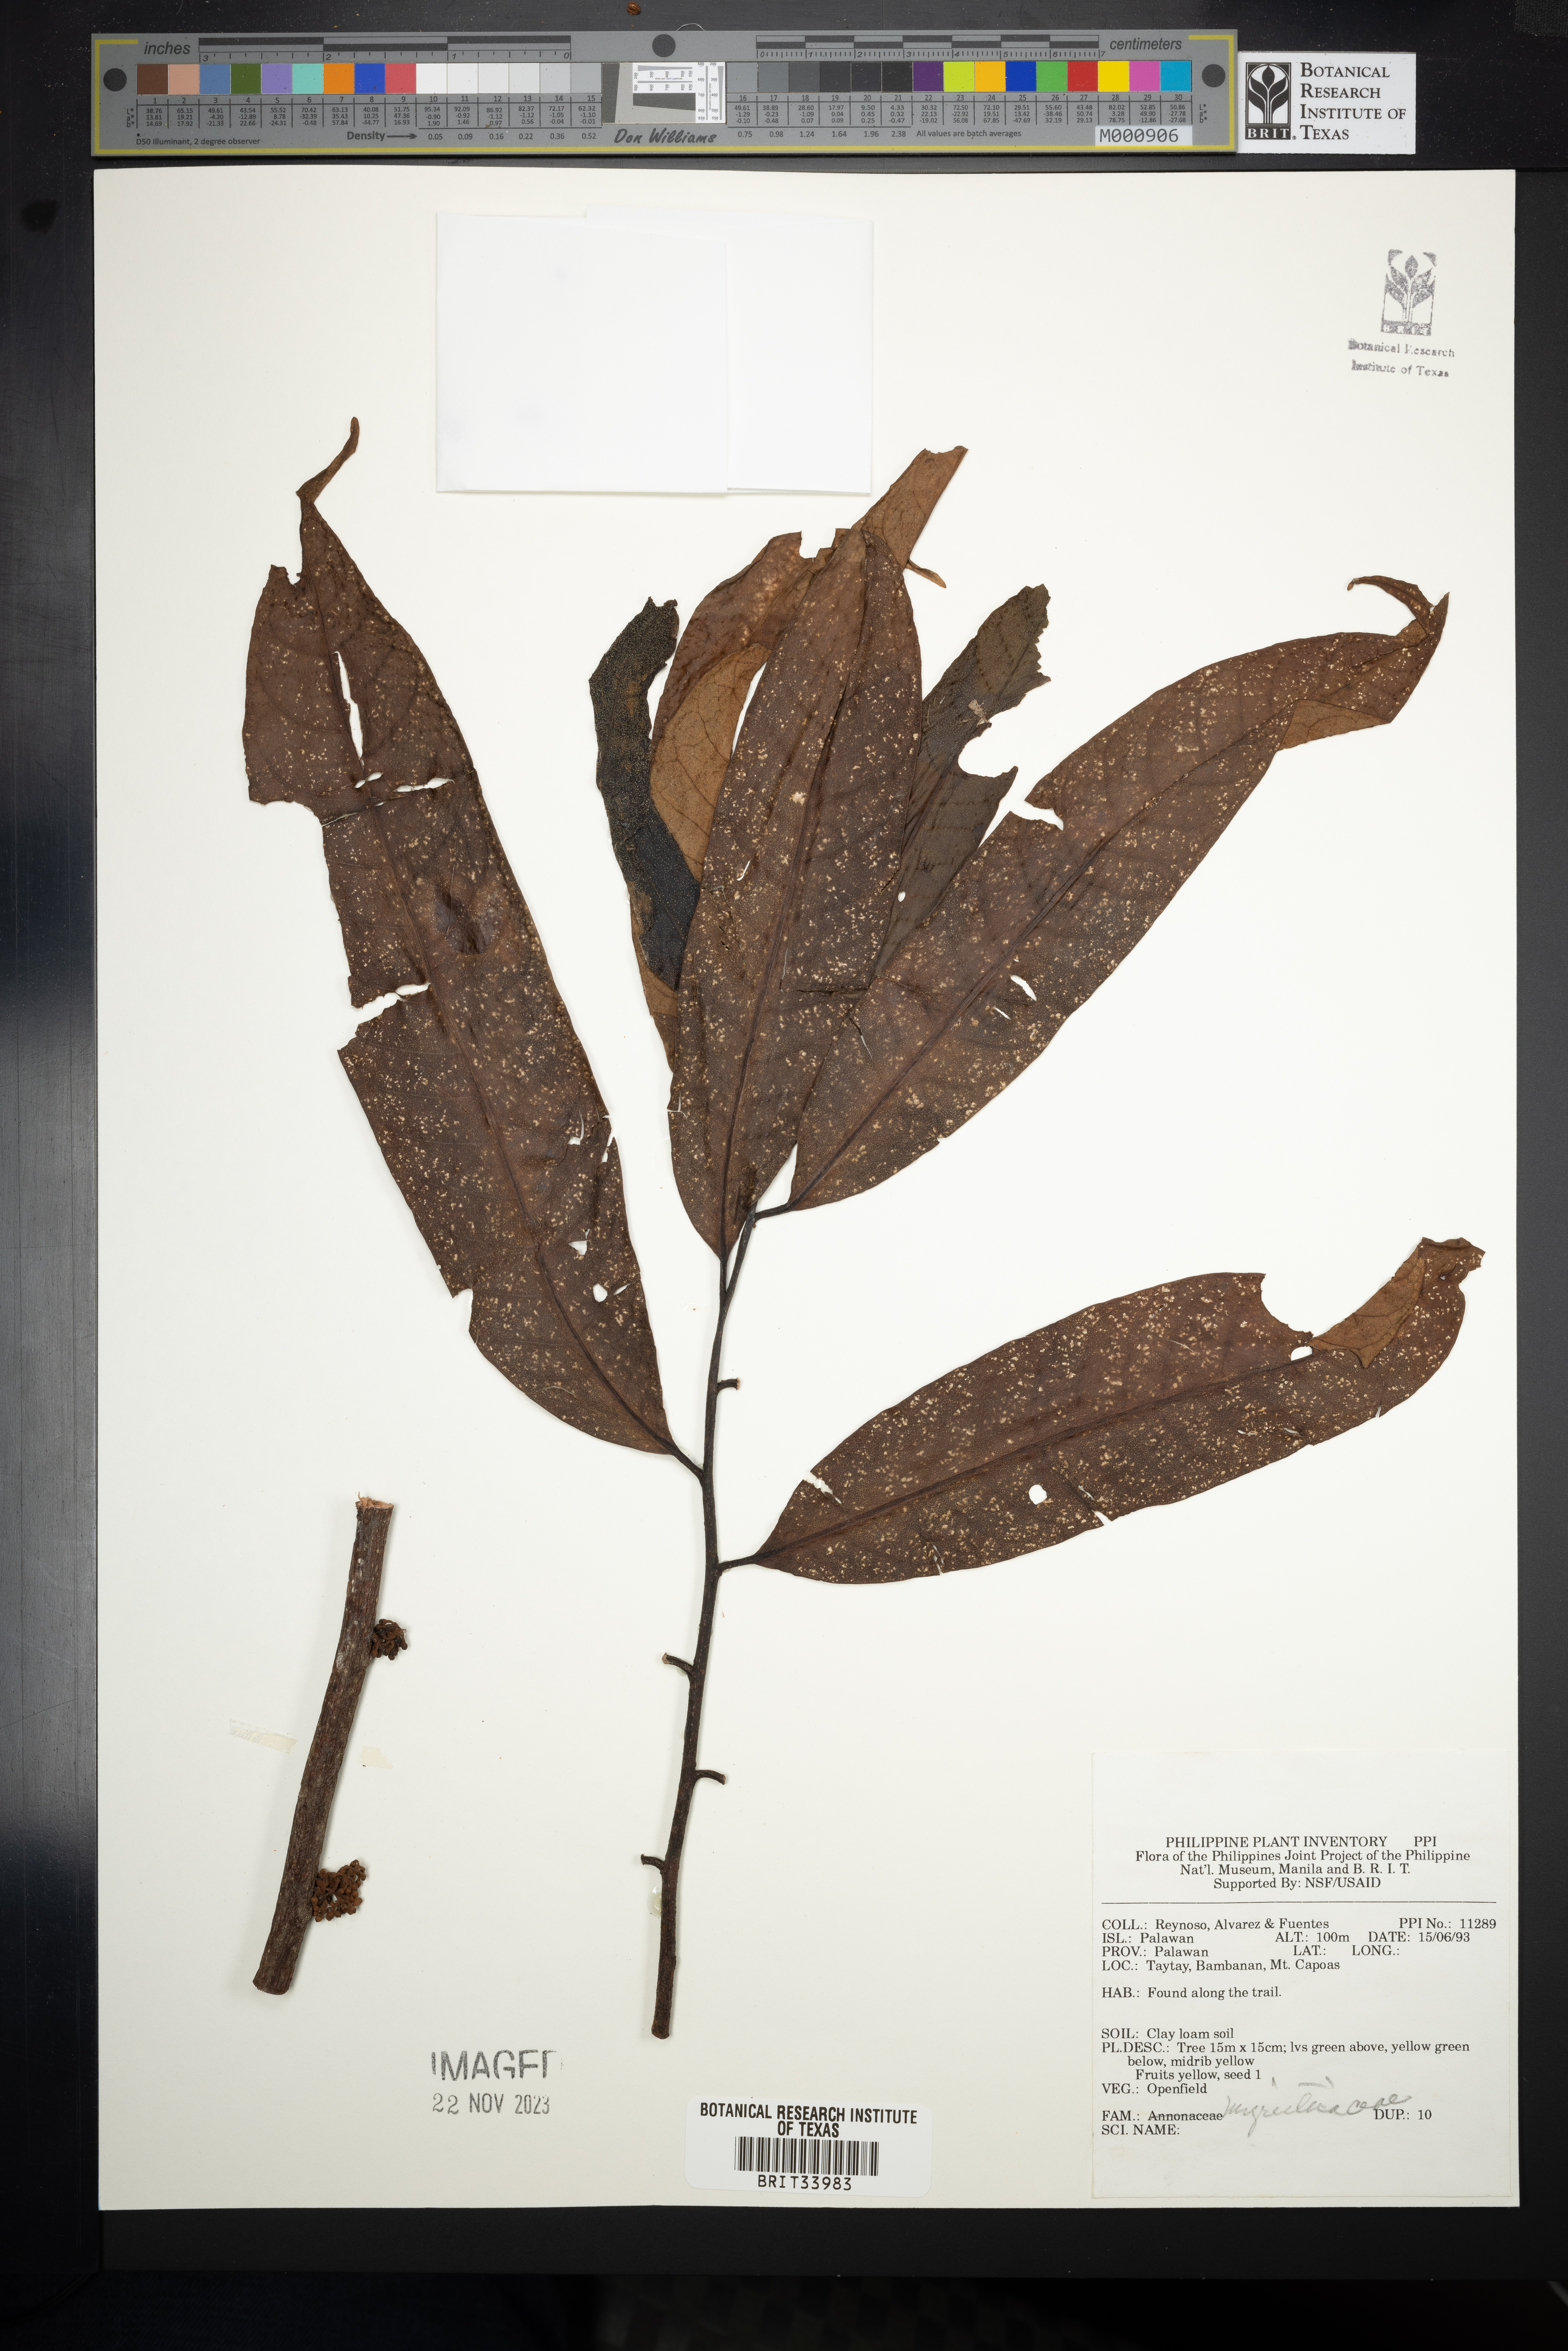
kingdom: Plantae
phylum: Tracheophyta
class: Magnoliopsida
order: Magnoliales
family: Myristicaceae
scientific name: Myristicaceae
